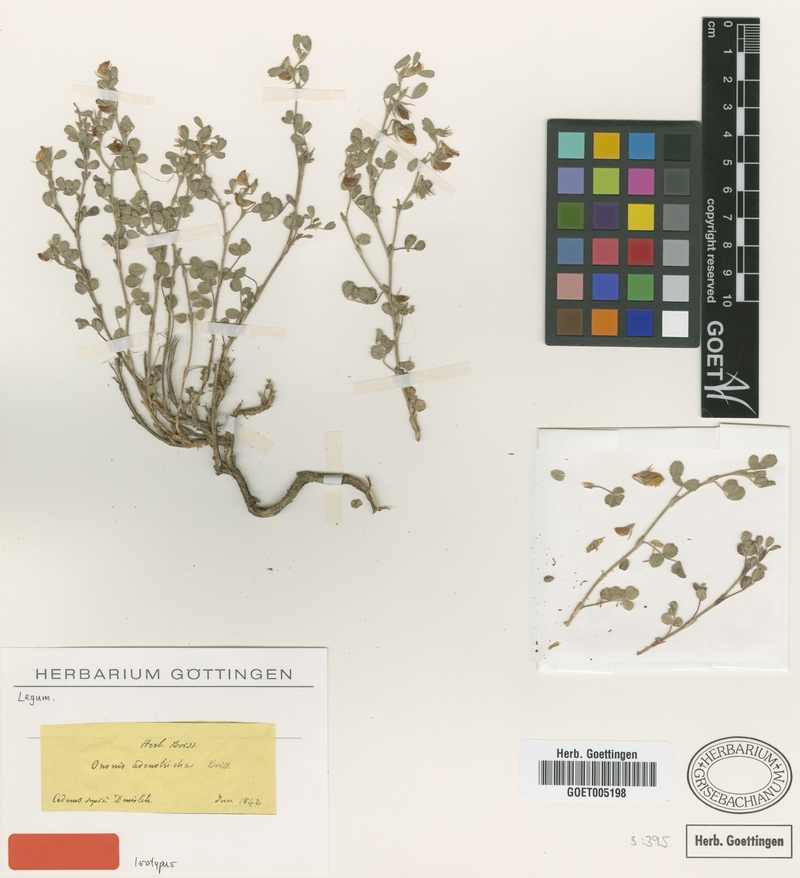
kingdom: Plantae
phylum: Tracheophyta
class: Magnoliopsida
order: Fabales
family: Fabaceae
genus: Ononis
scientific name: Ononis adenotricha
